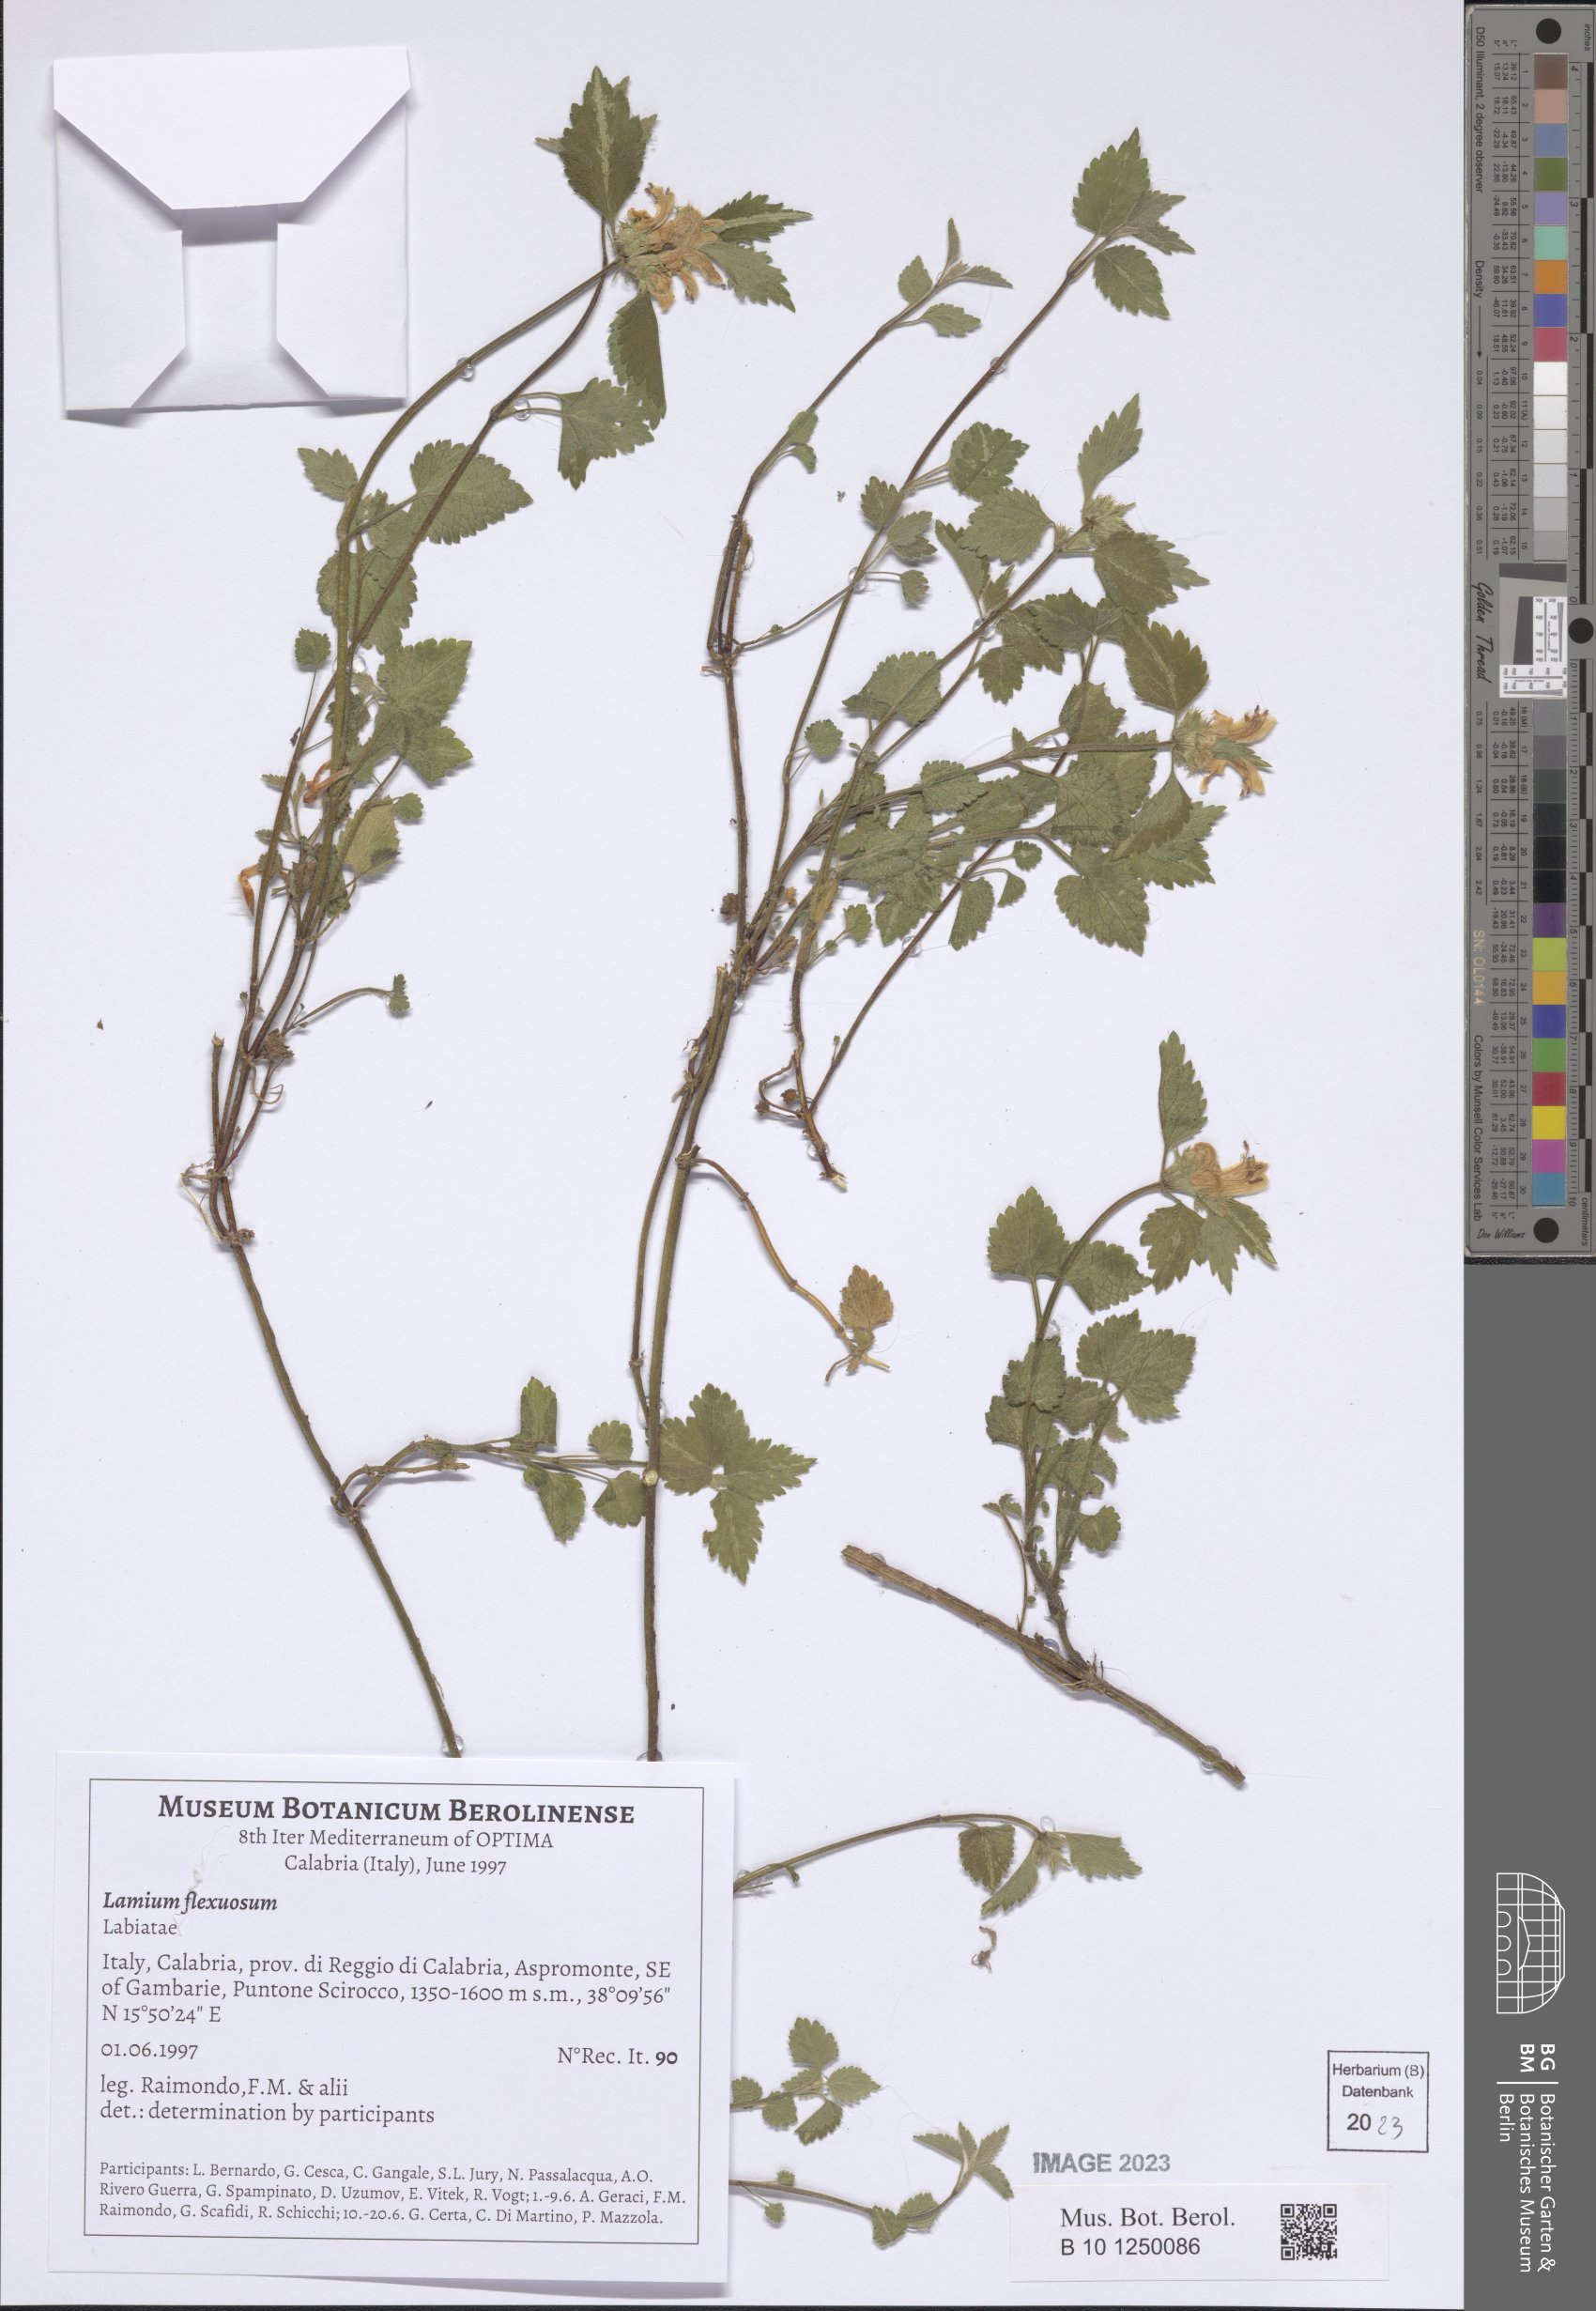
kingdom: Plantae
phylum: Tracheophyta
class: Magnoliopsida
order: Lamiales
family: Lamiaceae
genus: Lamium
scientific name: Lamium flexuosum
